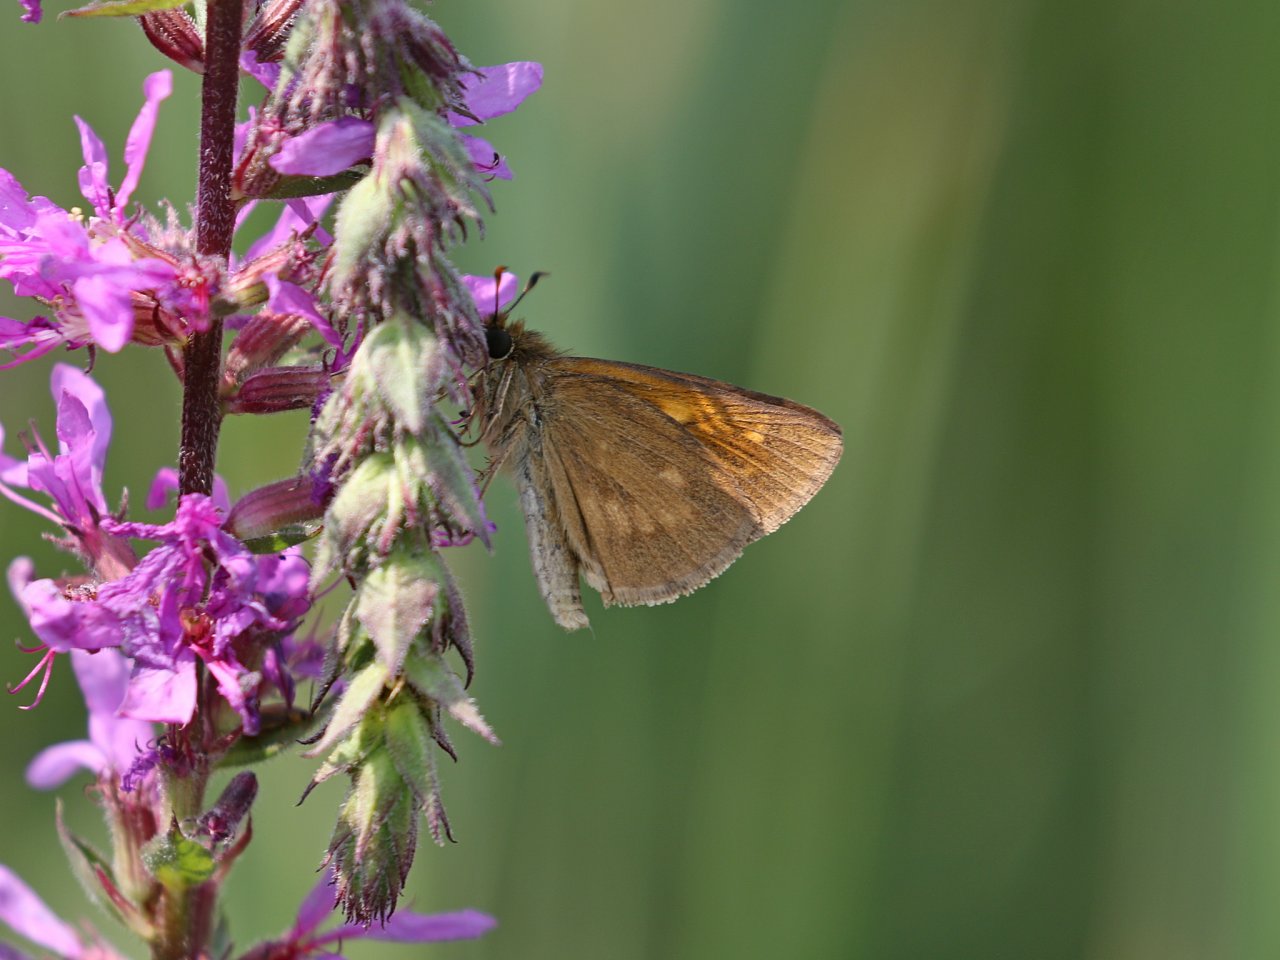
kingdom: Animalia
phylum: Arthropoda
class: Insecta
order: Lepidoptera
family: Hesperiidae
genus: Poanes
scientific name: Poanes viator
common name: Broad-winged Skipper
